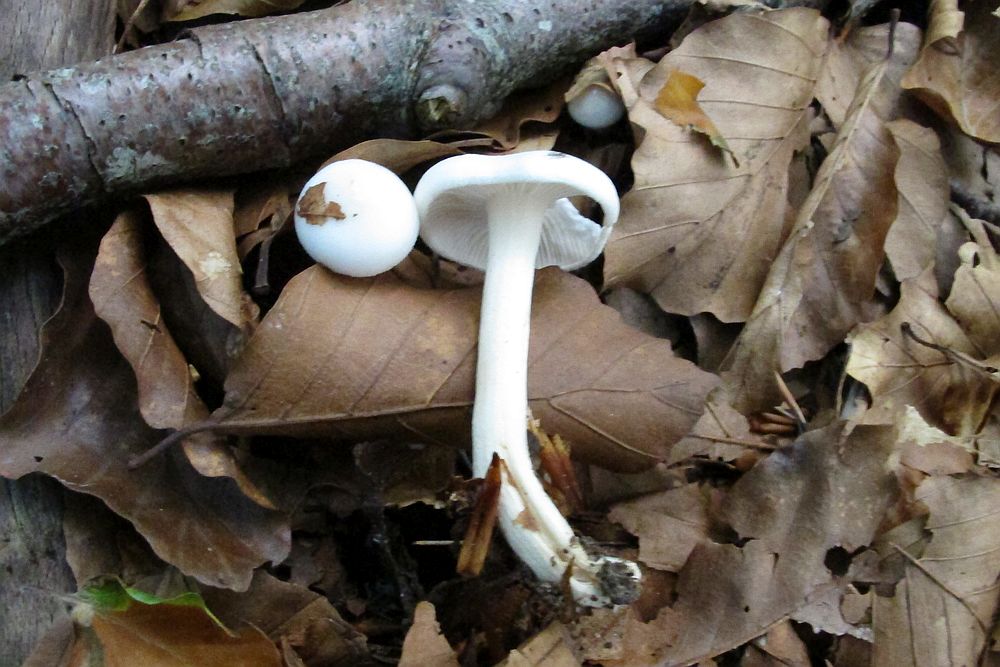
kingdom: Fungi
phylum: Basidiomycota
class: Agaricomycetes
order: Agaricales
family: Hygrophoraceae
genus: Hygrophorus
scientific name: Hygrophorus eburneus
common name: elfenbens-sneglehat
